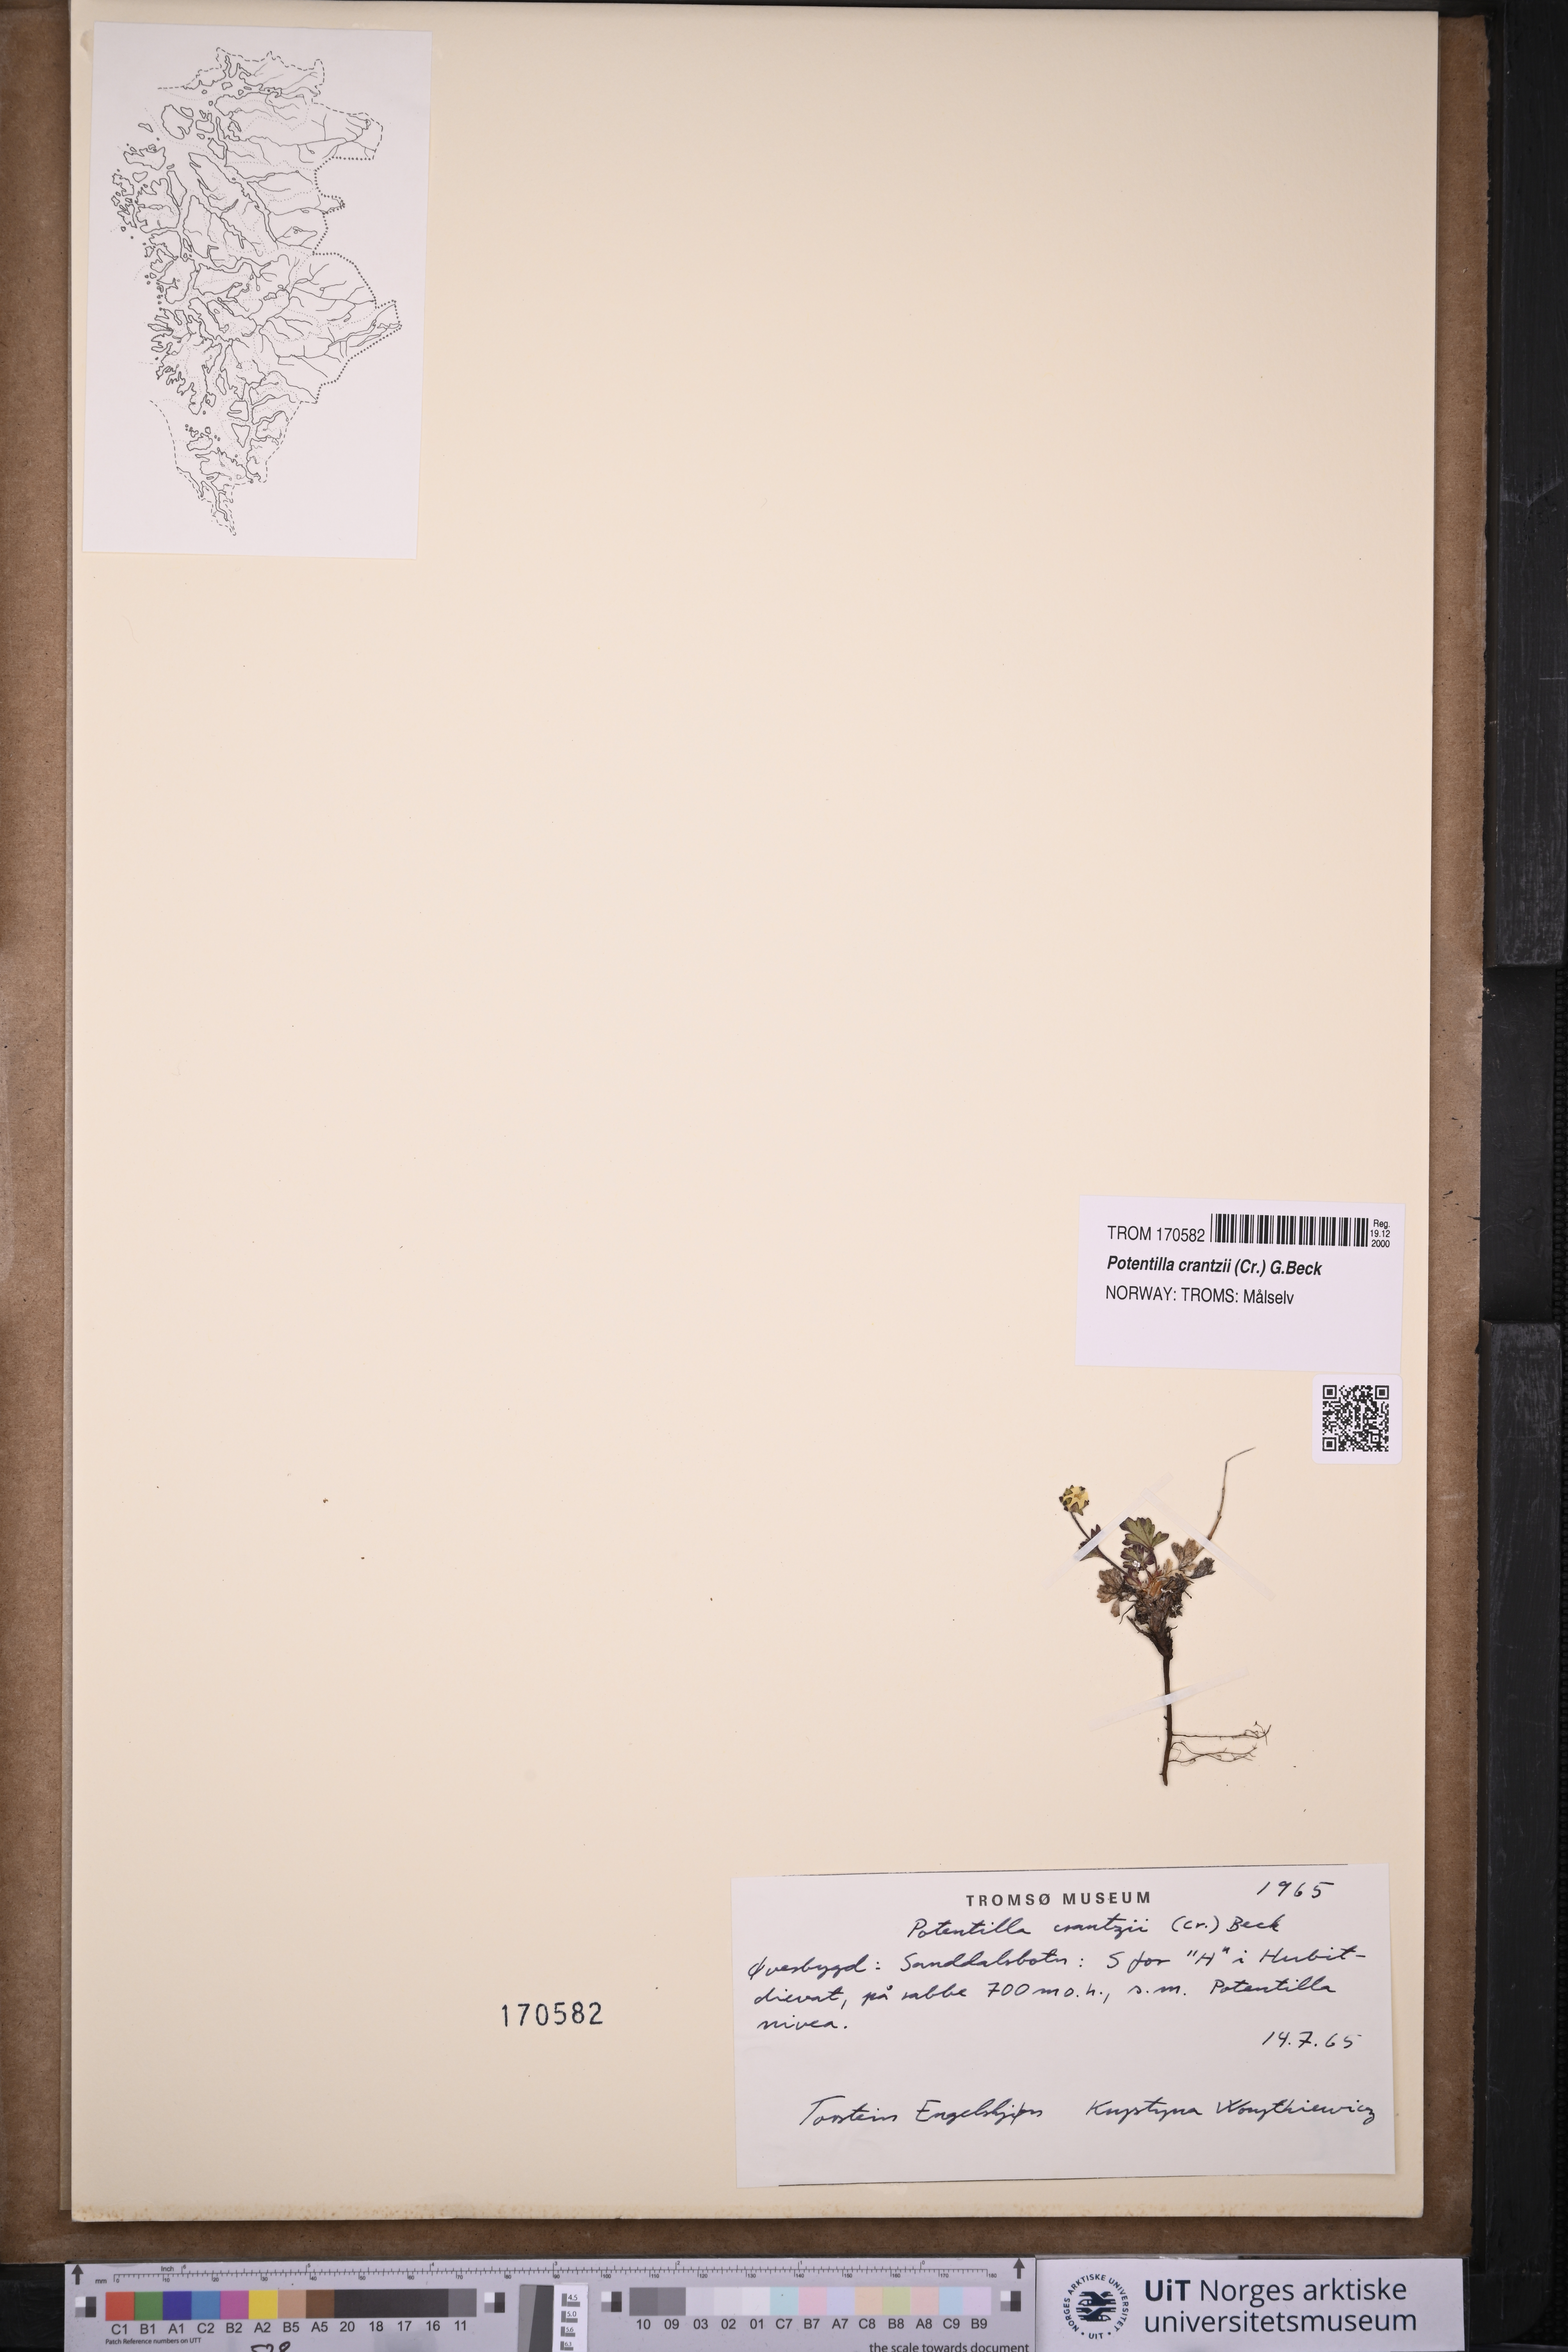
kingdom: Plantae
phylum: Tracheophyta
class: Magnoliopsida
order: Rosales
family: Rosaceae
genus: Potentilla
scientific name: Potentilla crantzii
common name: Alpine cinquefoil
